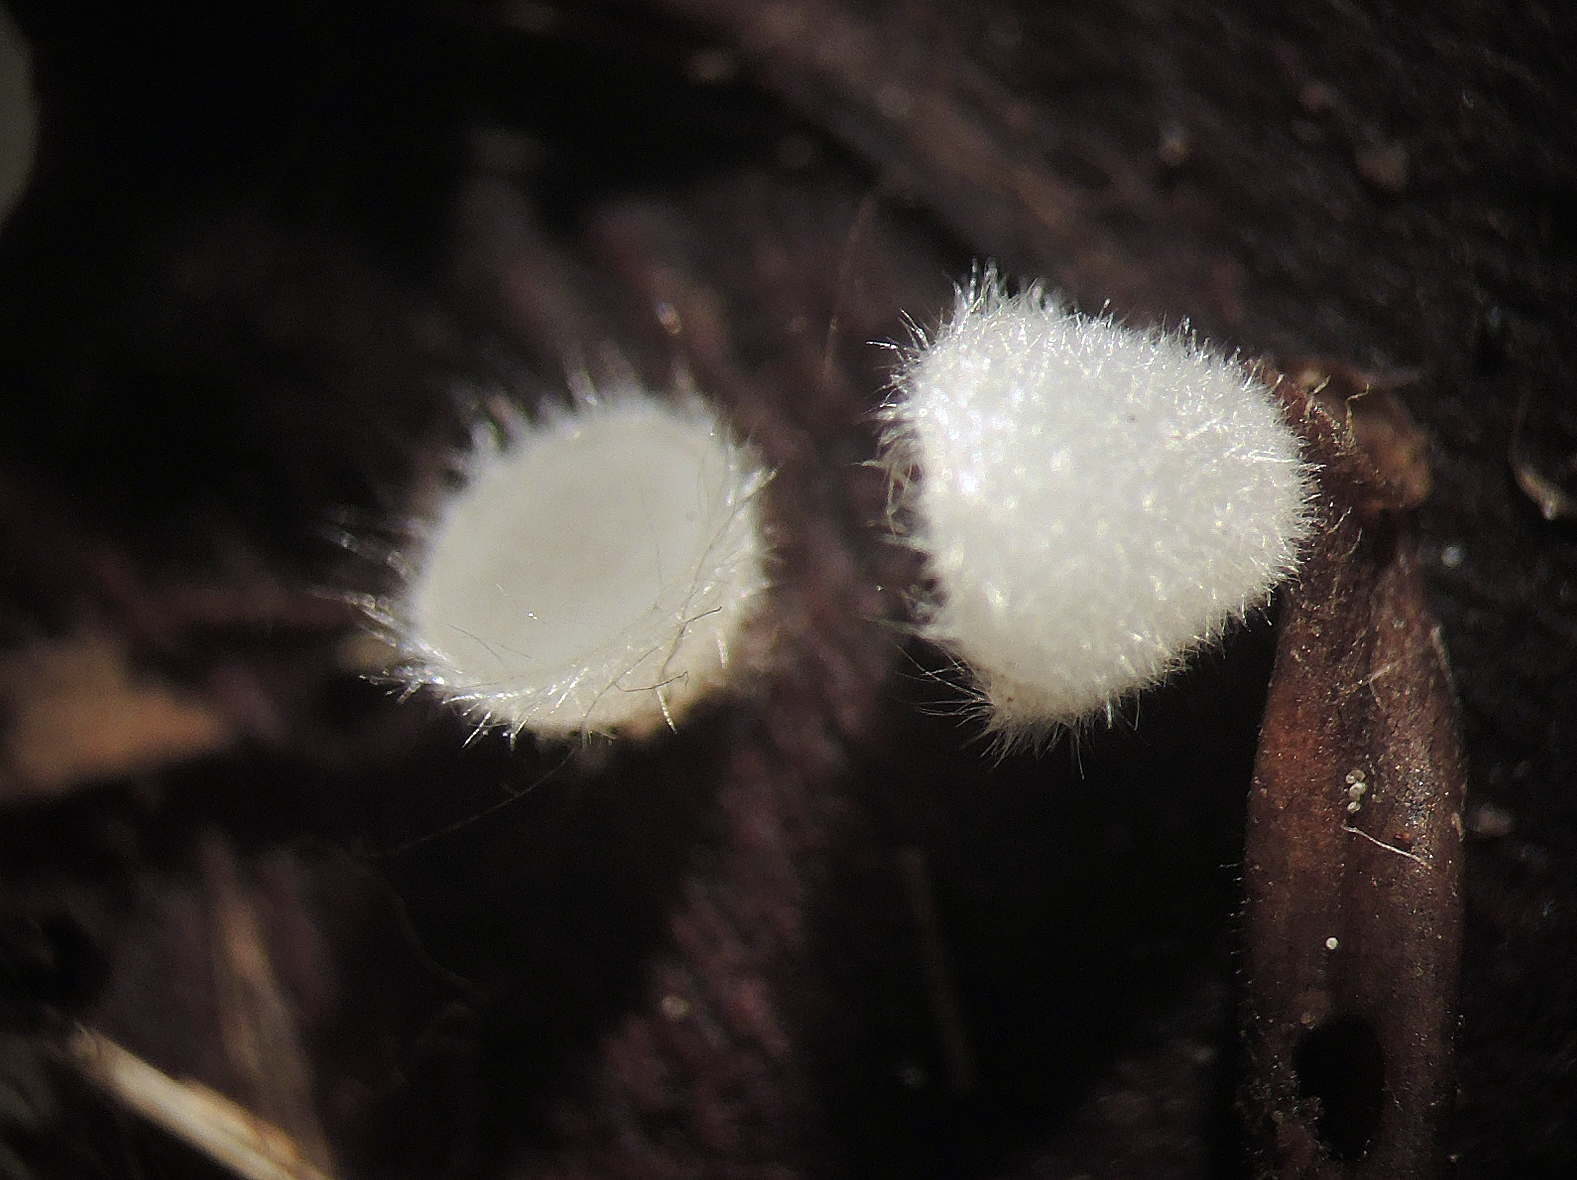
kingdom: Fungi
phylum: Ascomycota
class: Pezizomycetes
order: Pezizales
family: Pyronemataceae
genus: Leucoscypha
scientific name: Leucoscypha leucotricha
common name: smuk hvidbæger
